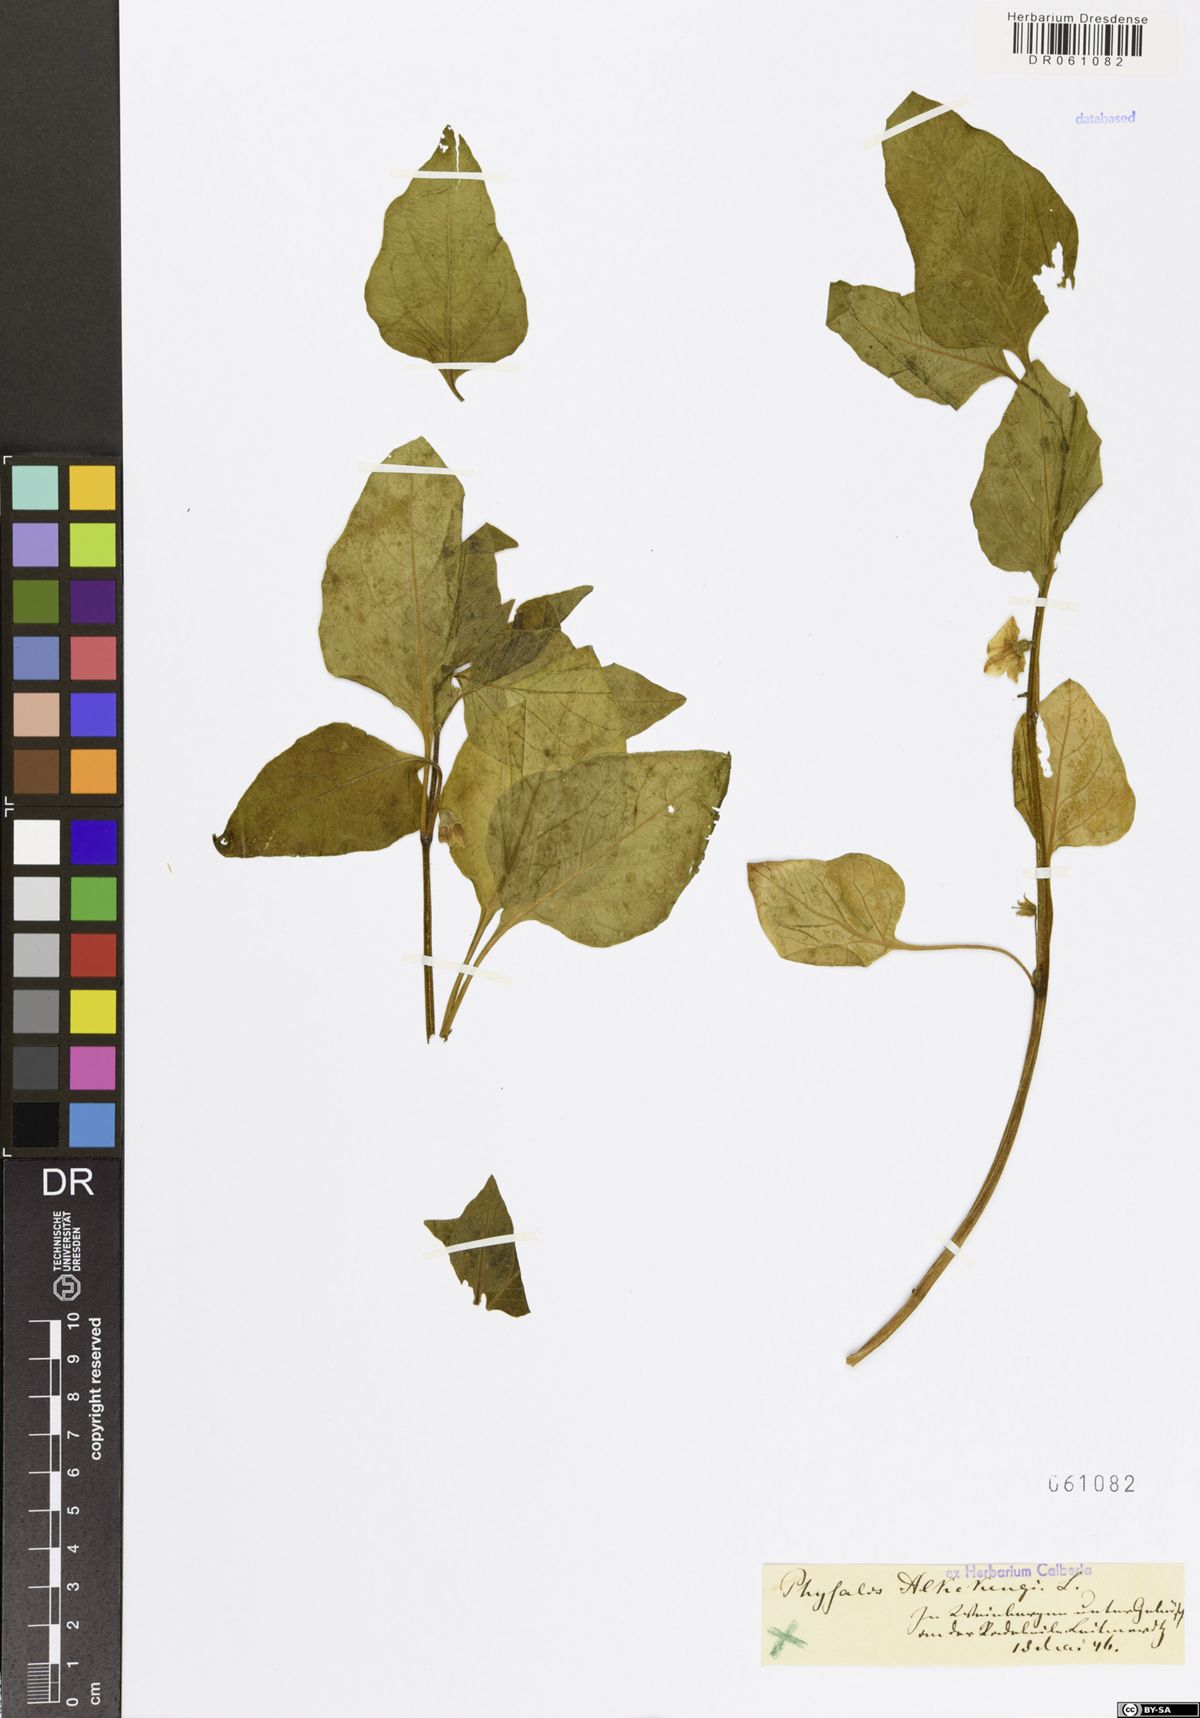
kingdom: Plantae
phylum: Tracheophyta
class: Magnoliopsida
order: Solanales
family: Solanaceae
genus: Alkekengi
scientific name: Alkekengi officinarum
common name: Japanese-lantern
